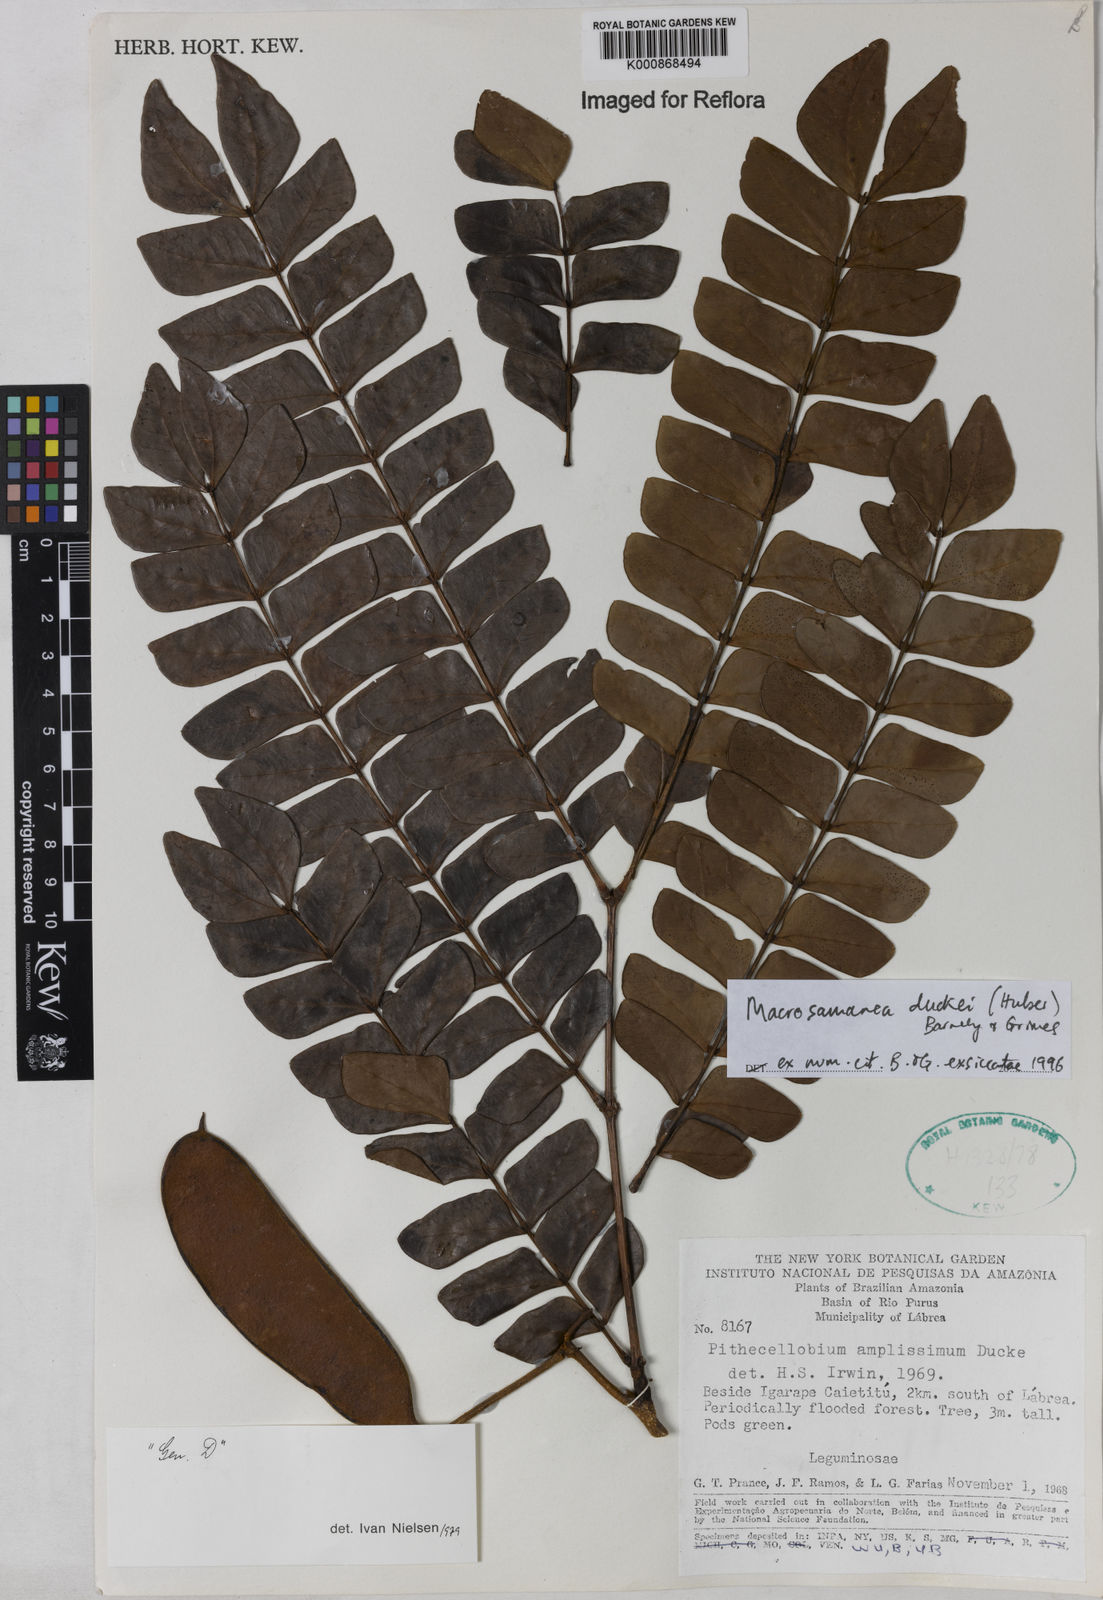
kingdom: Plantae
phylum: Tracheophyta
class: Magnoliopsida
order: Fabales
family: Fabaceae
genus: Macrosamanea
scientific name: Macrosamanea duckei
